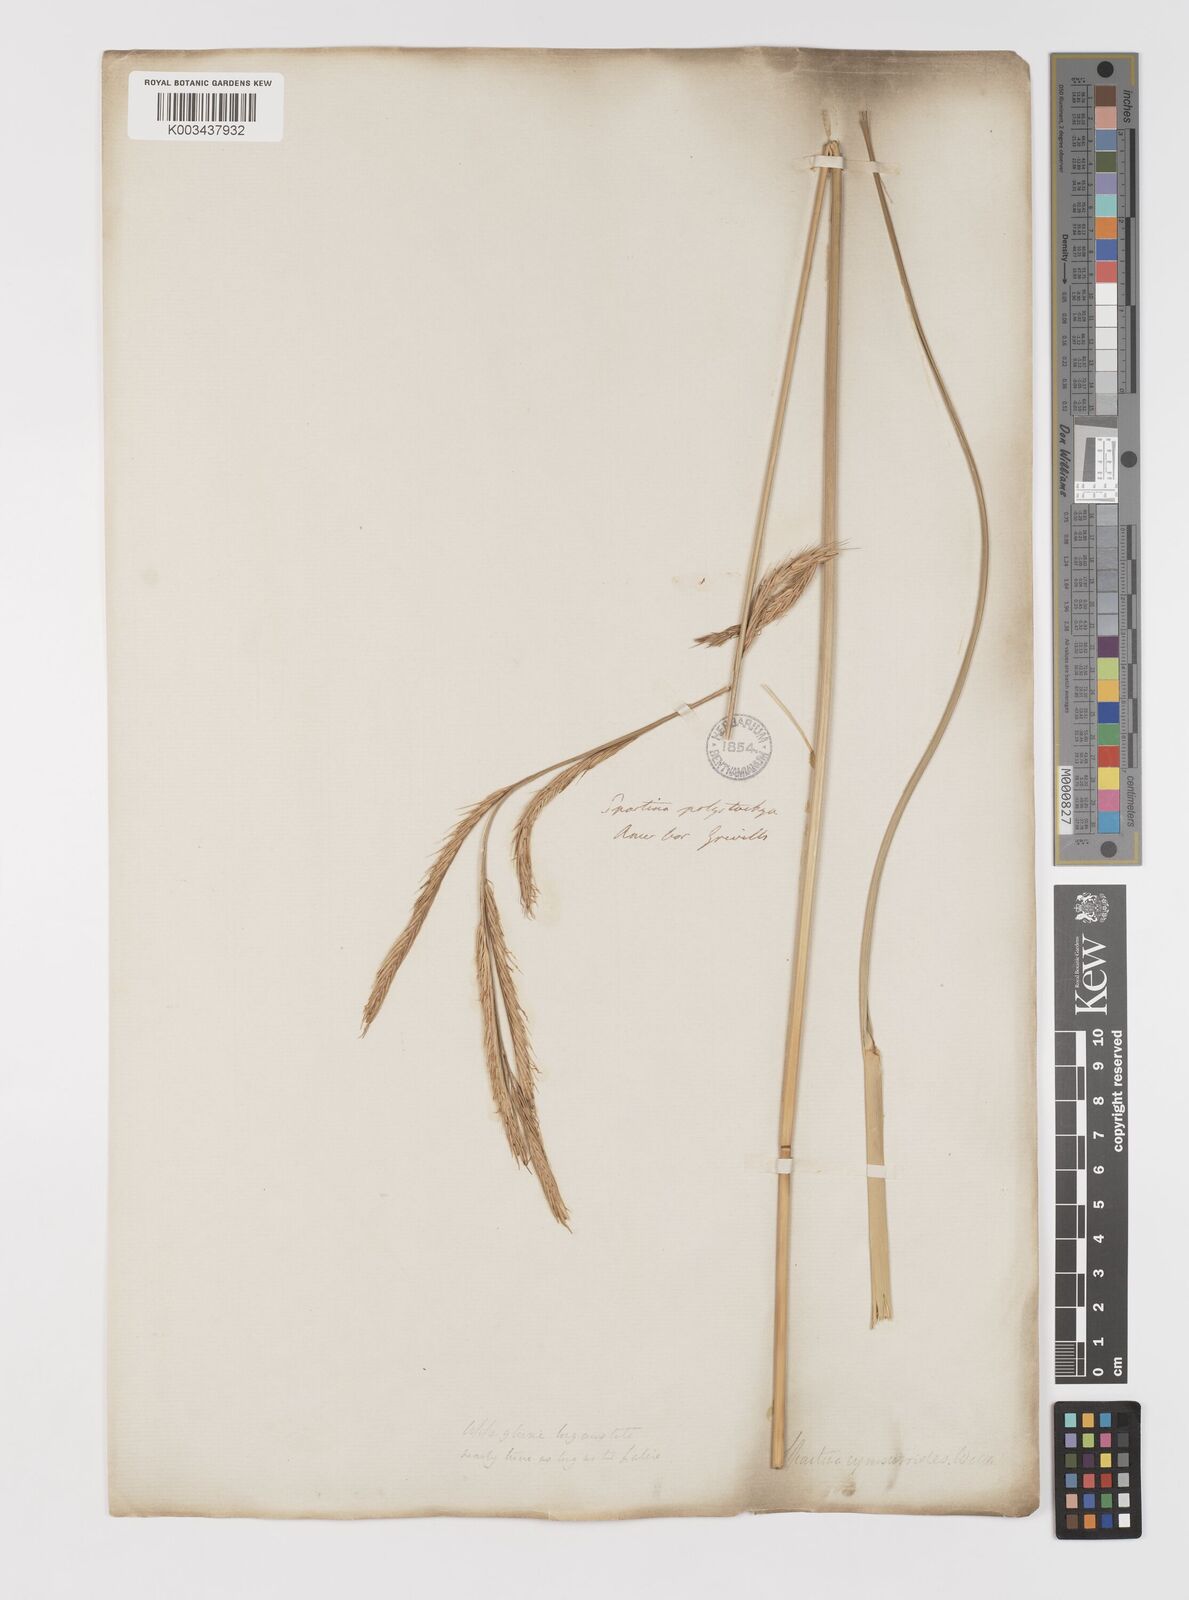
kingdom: Plantae
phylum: Tracheophyta
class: Liliopsida
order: Poales
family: Poaceae
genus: Sporobolus
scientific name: Sporobolus michauxianus
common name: Freshwater cordgrass
